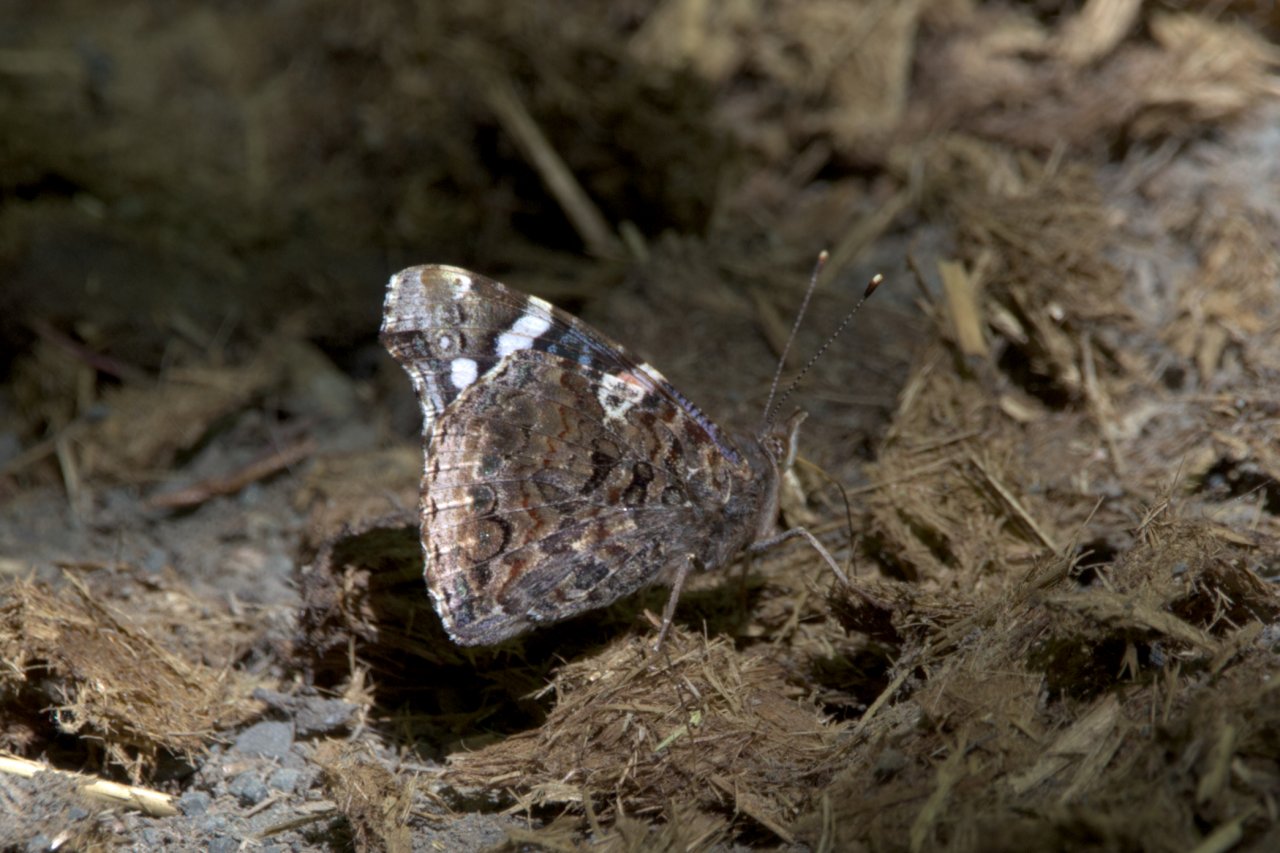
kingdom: Animalia
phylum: Arthropoda
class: Insecta
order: Lepidoptera
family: Nymphalidae
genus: Vanessa
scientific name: Vanessa atalanta
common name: Red Admiral
